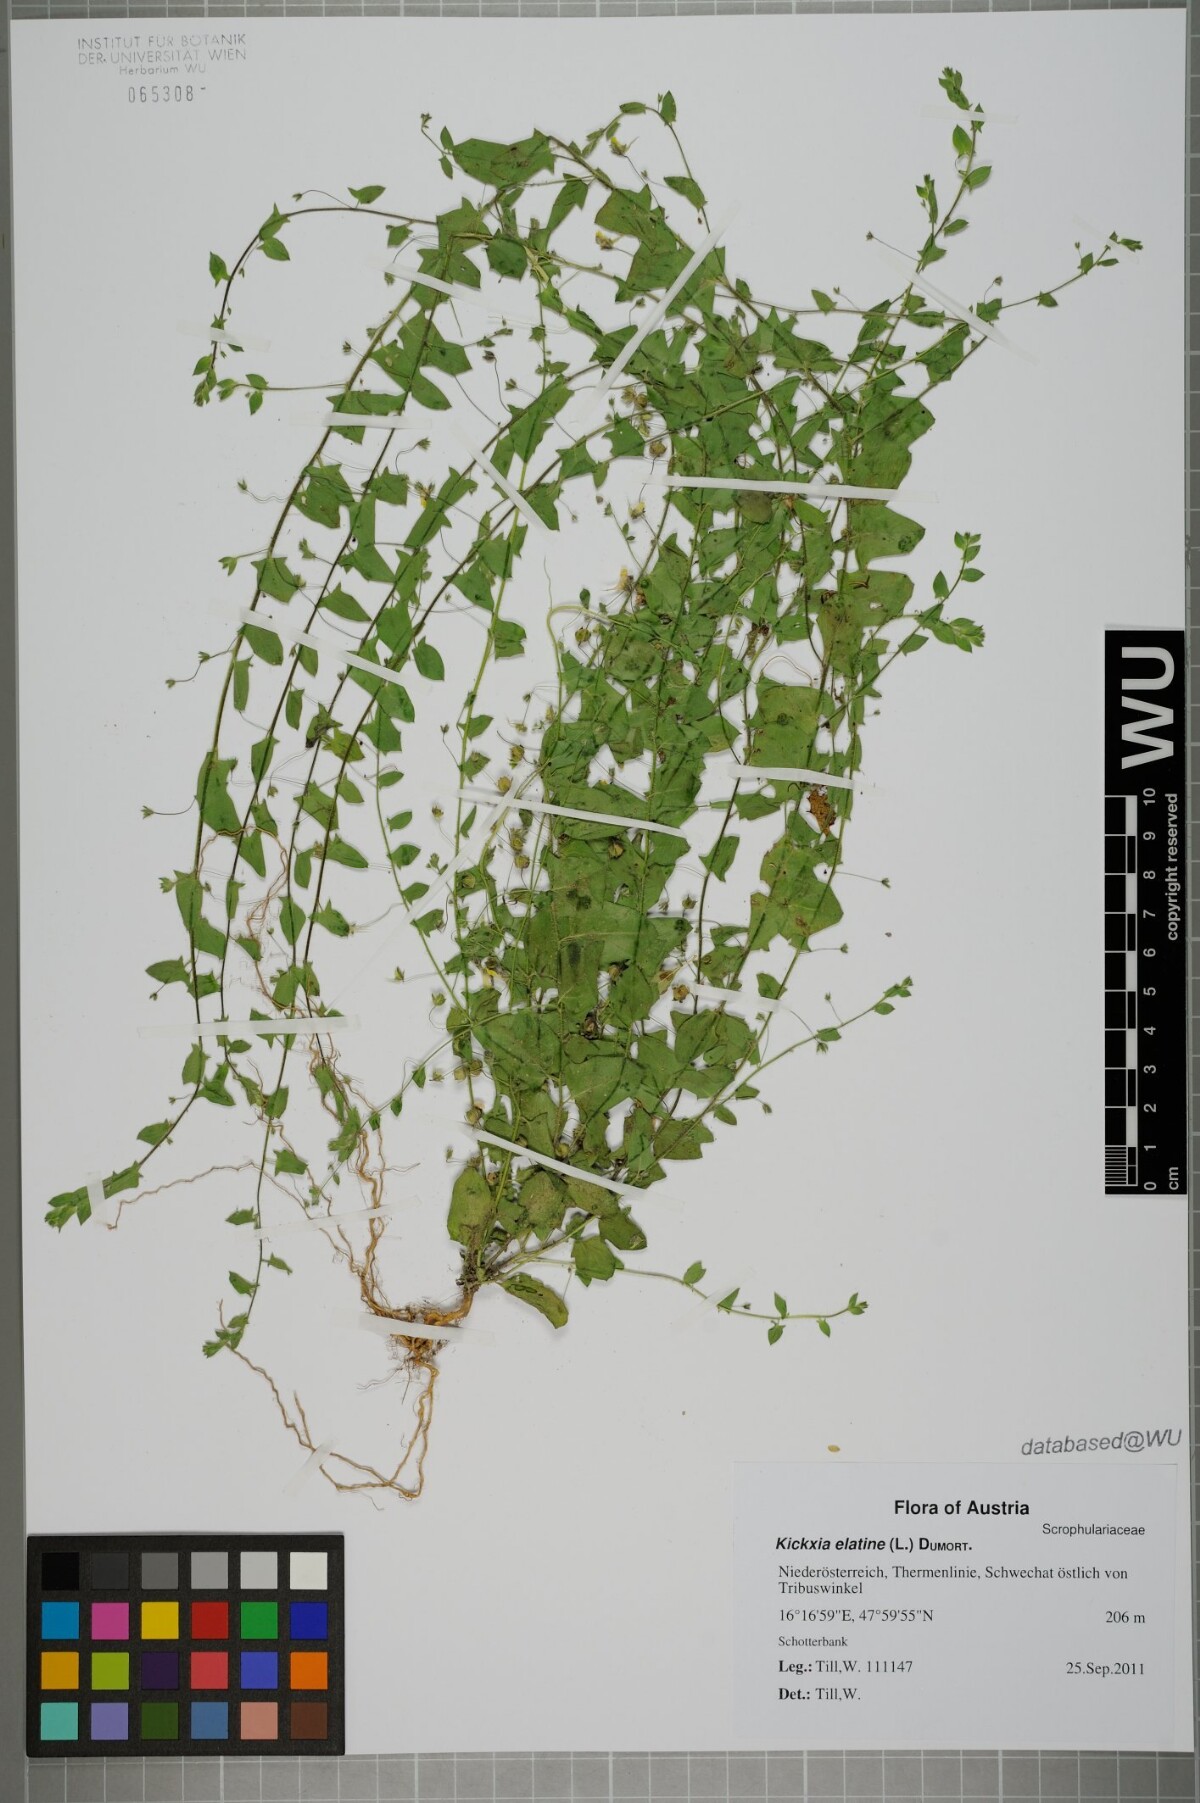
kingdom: Plantae
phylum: Tracheophyta
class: Magnoliopsida
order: Lamiales
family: Plantaginaceae
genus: Kickxia
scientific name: Kickxia elatine
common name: Sharp-leaved fluellen
